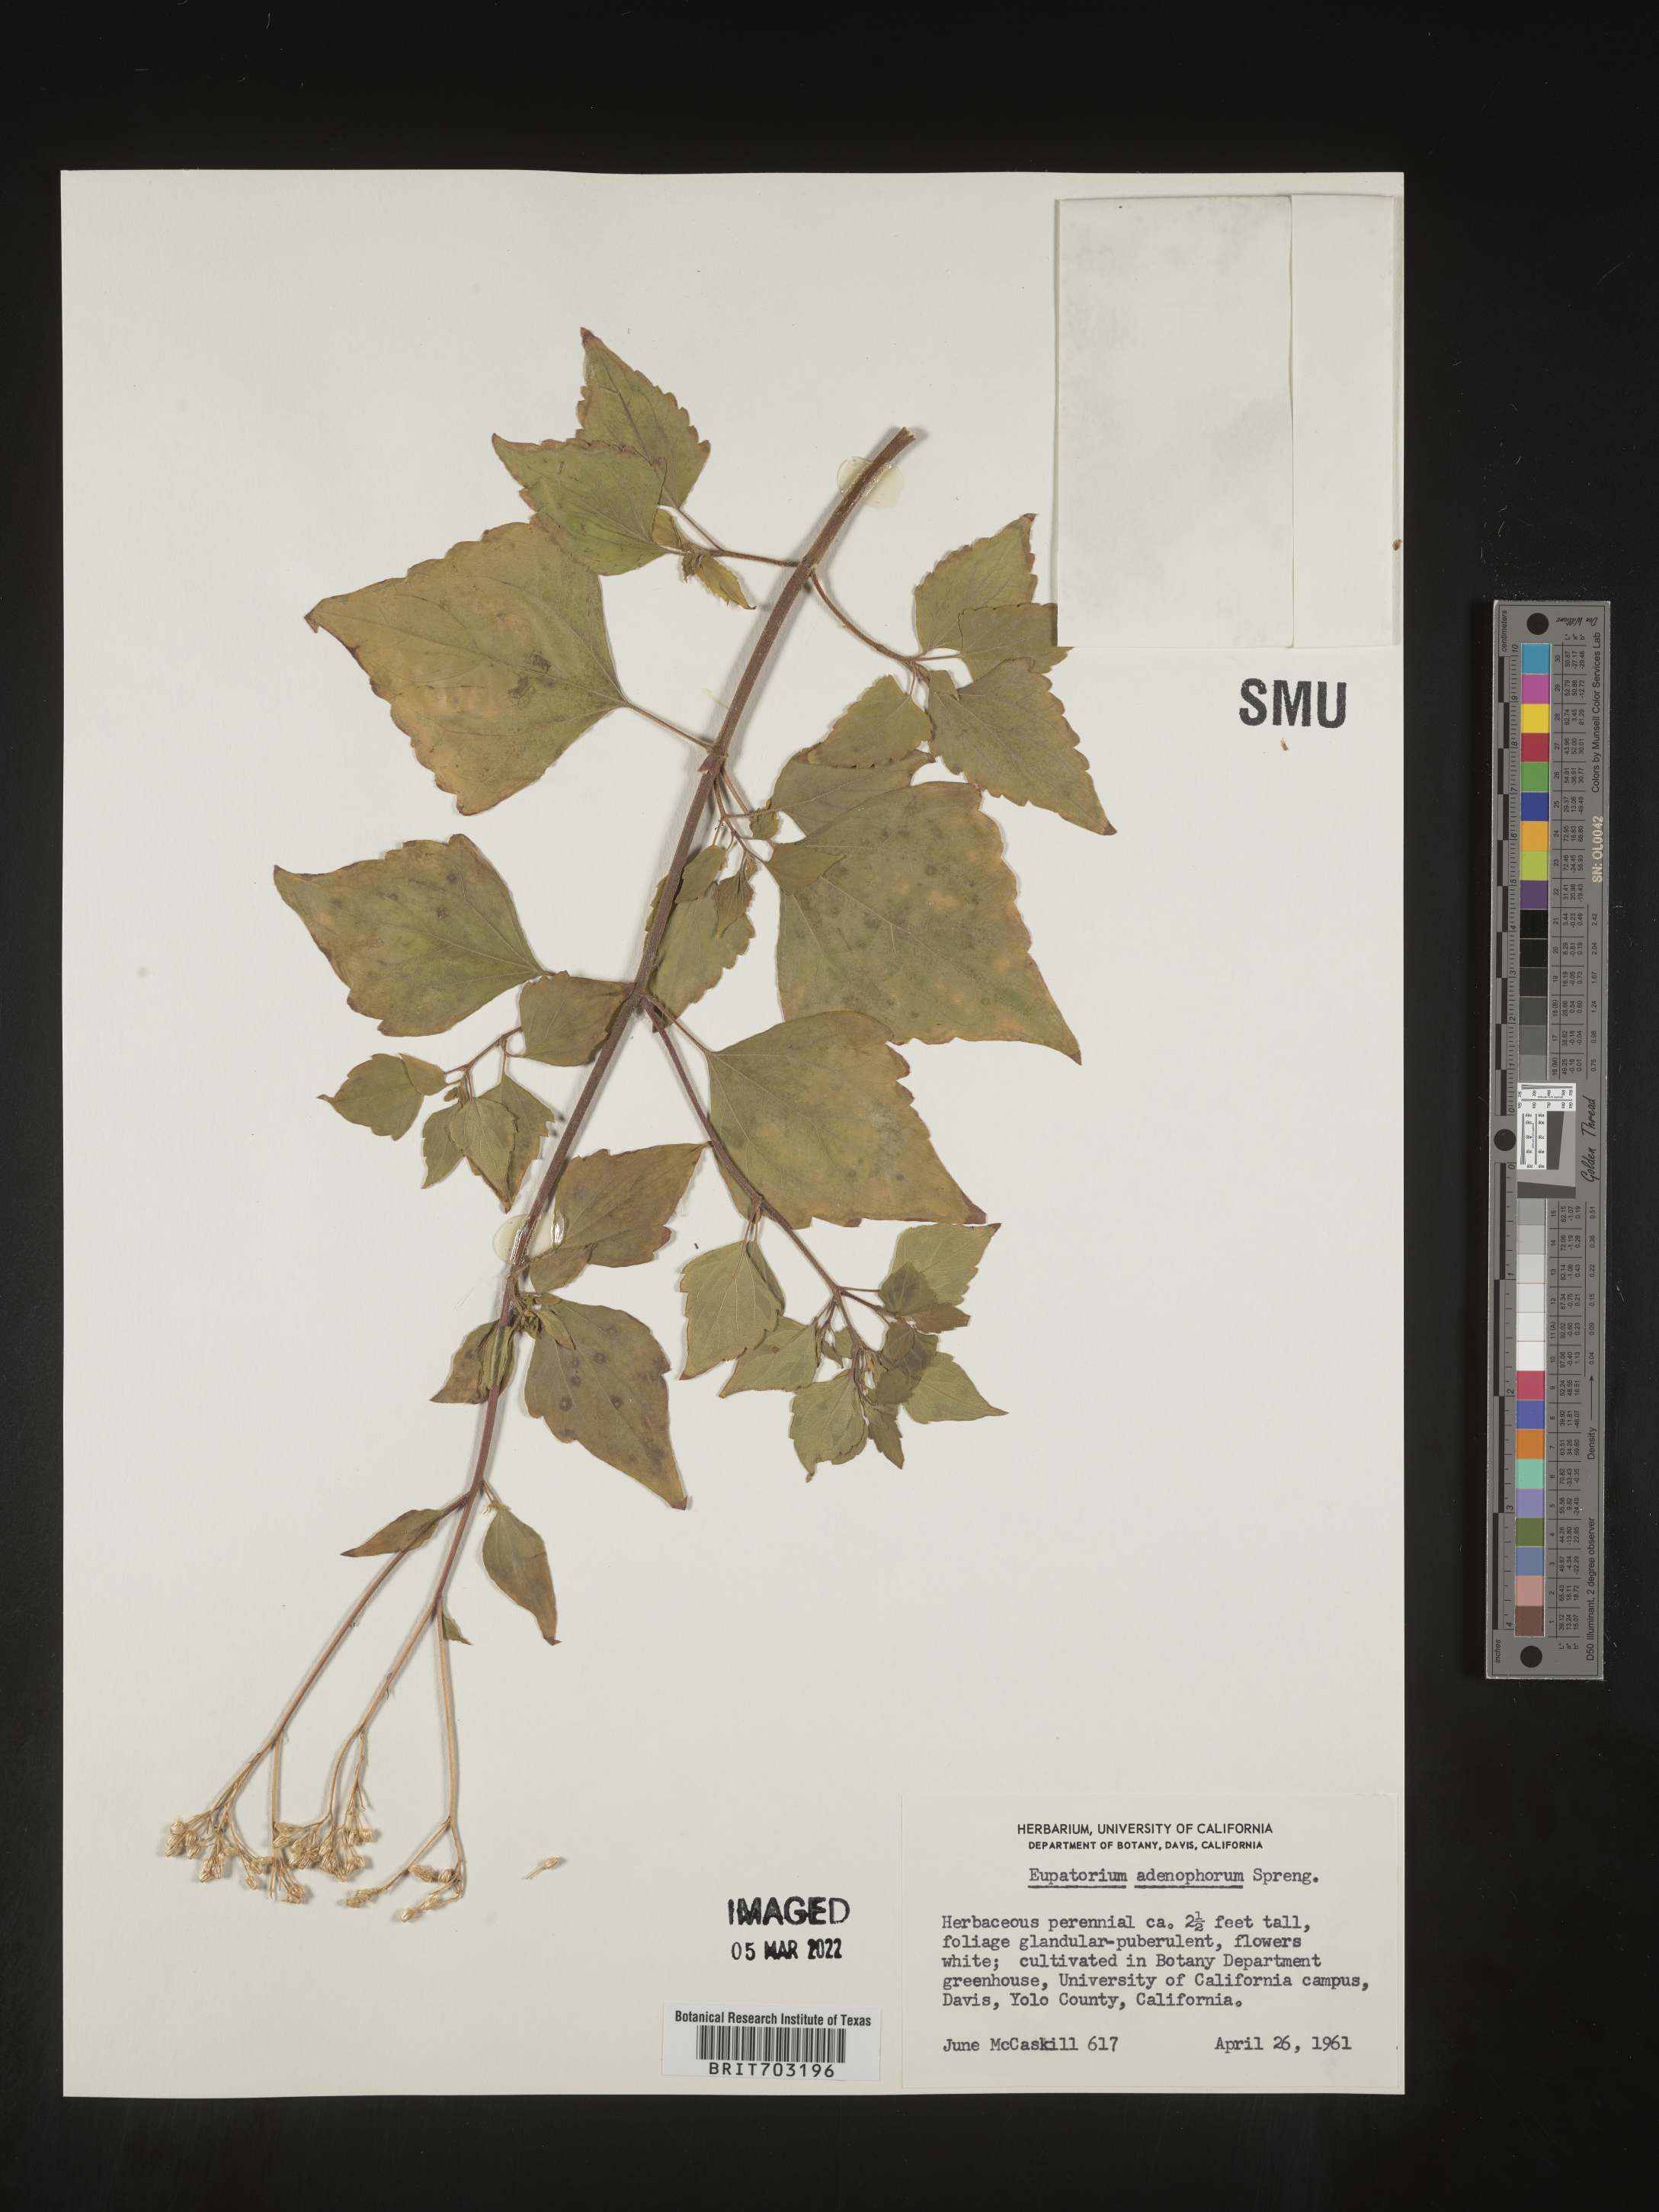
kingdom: Plantae
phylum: Tracheophyta
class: Magnoliopsida
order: Asterales
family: Asteraceae
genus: Eupatorium
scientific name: Eupatorium
